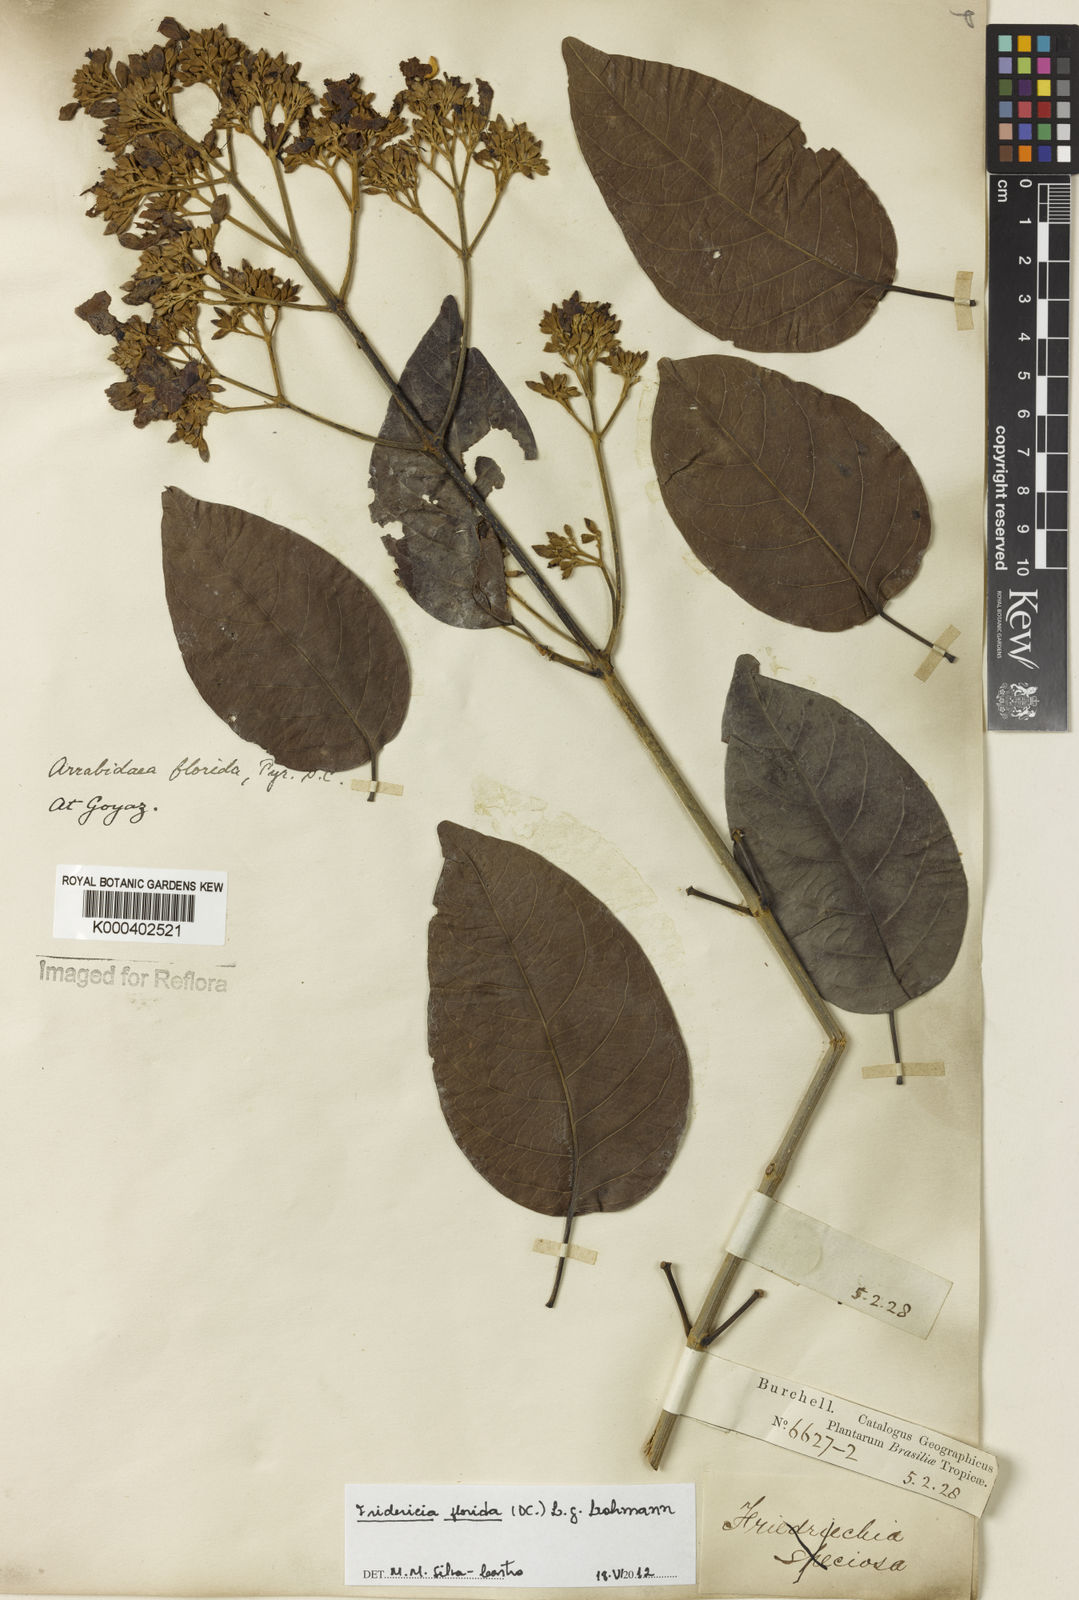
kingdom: Plantae
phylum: Tracheophyta
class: Magnoliopsida
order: Lamiales
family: Bignoniaceae
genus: Fridericia
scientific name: Fridericia florida
